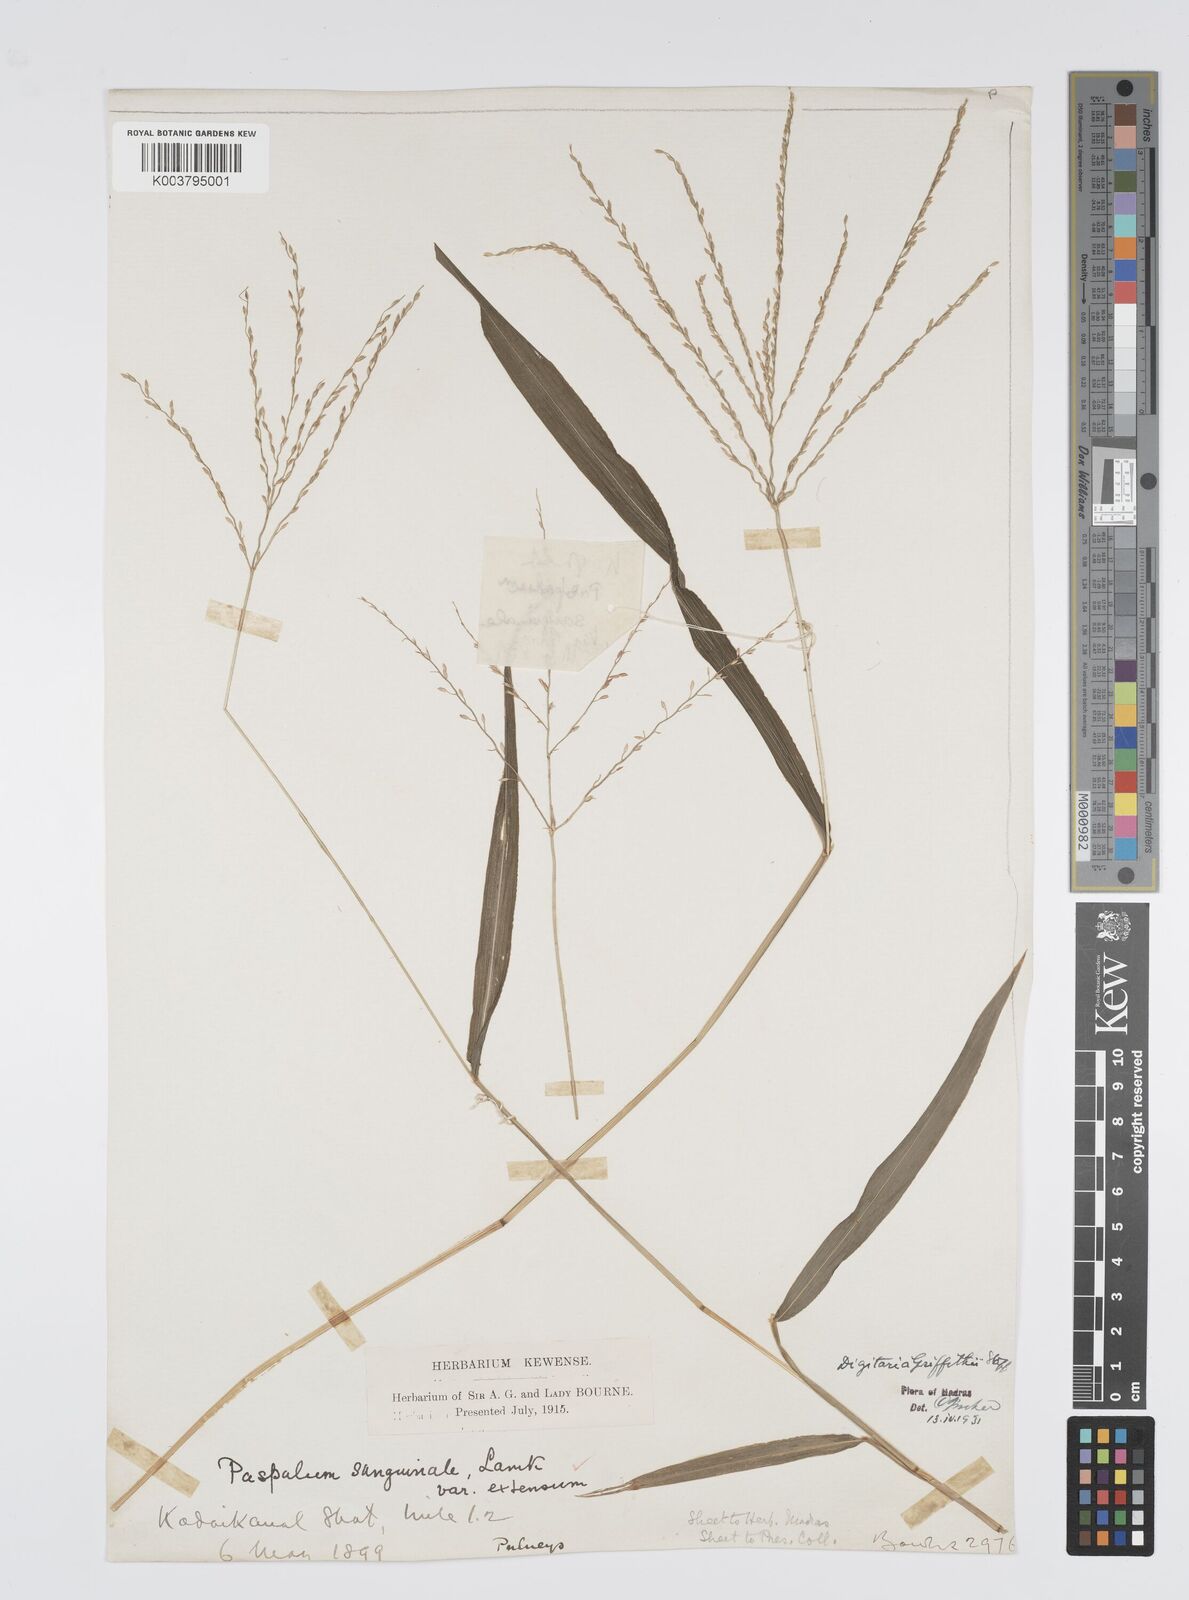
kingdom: Plantae
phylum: Tracheophyta
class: Liliopsida
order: Poales
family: Poaceae
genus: Digitaria
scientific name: Digitaria griffithii
